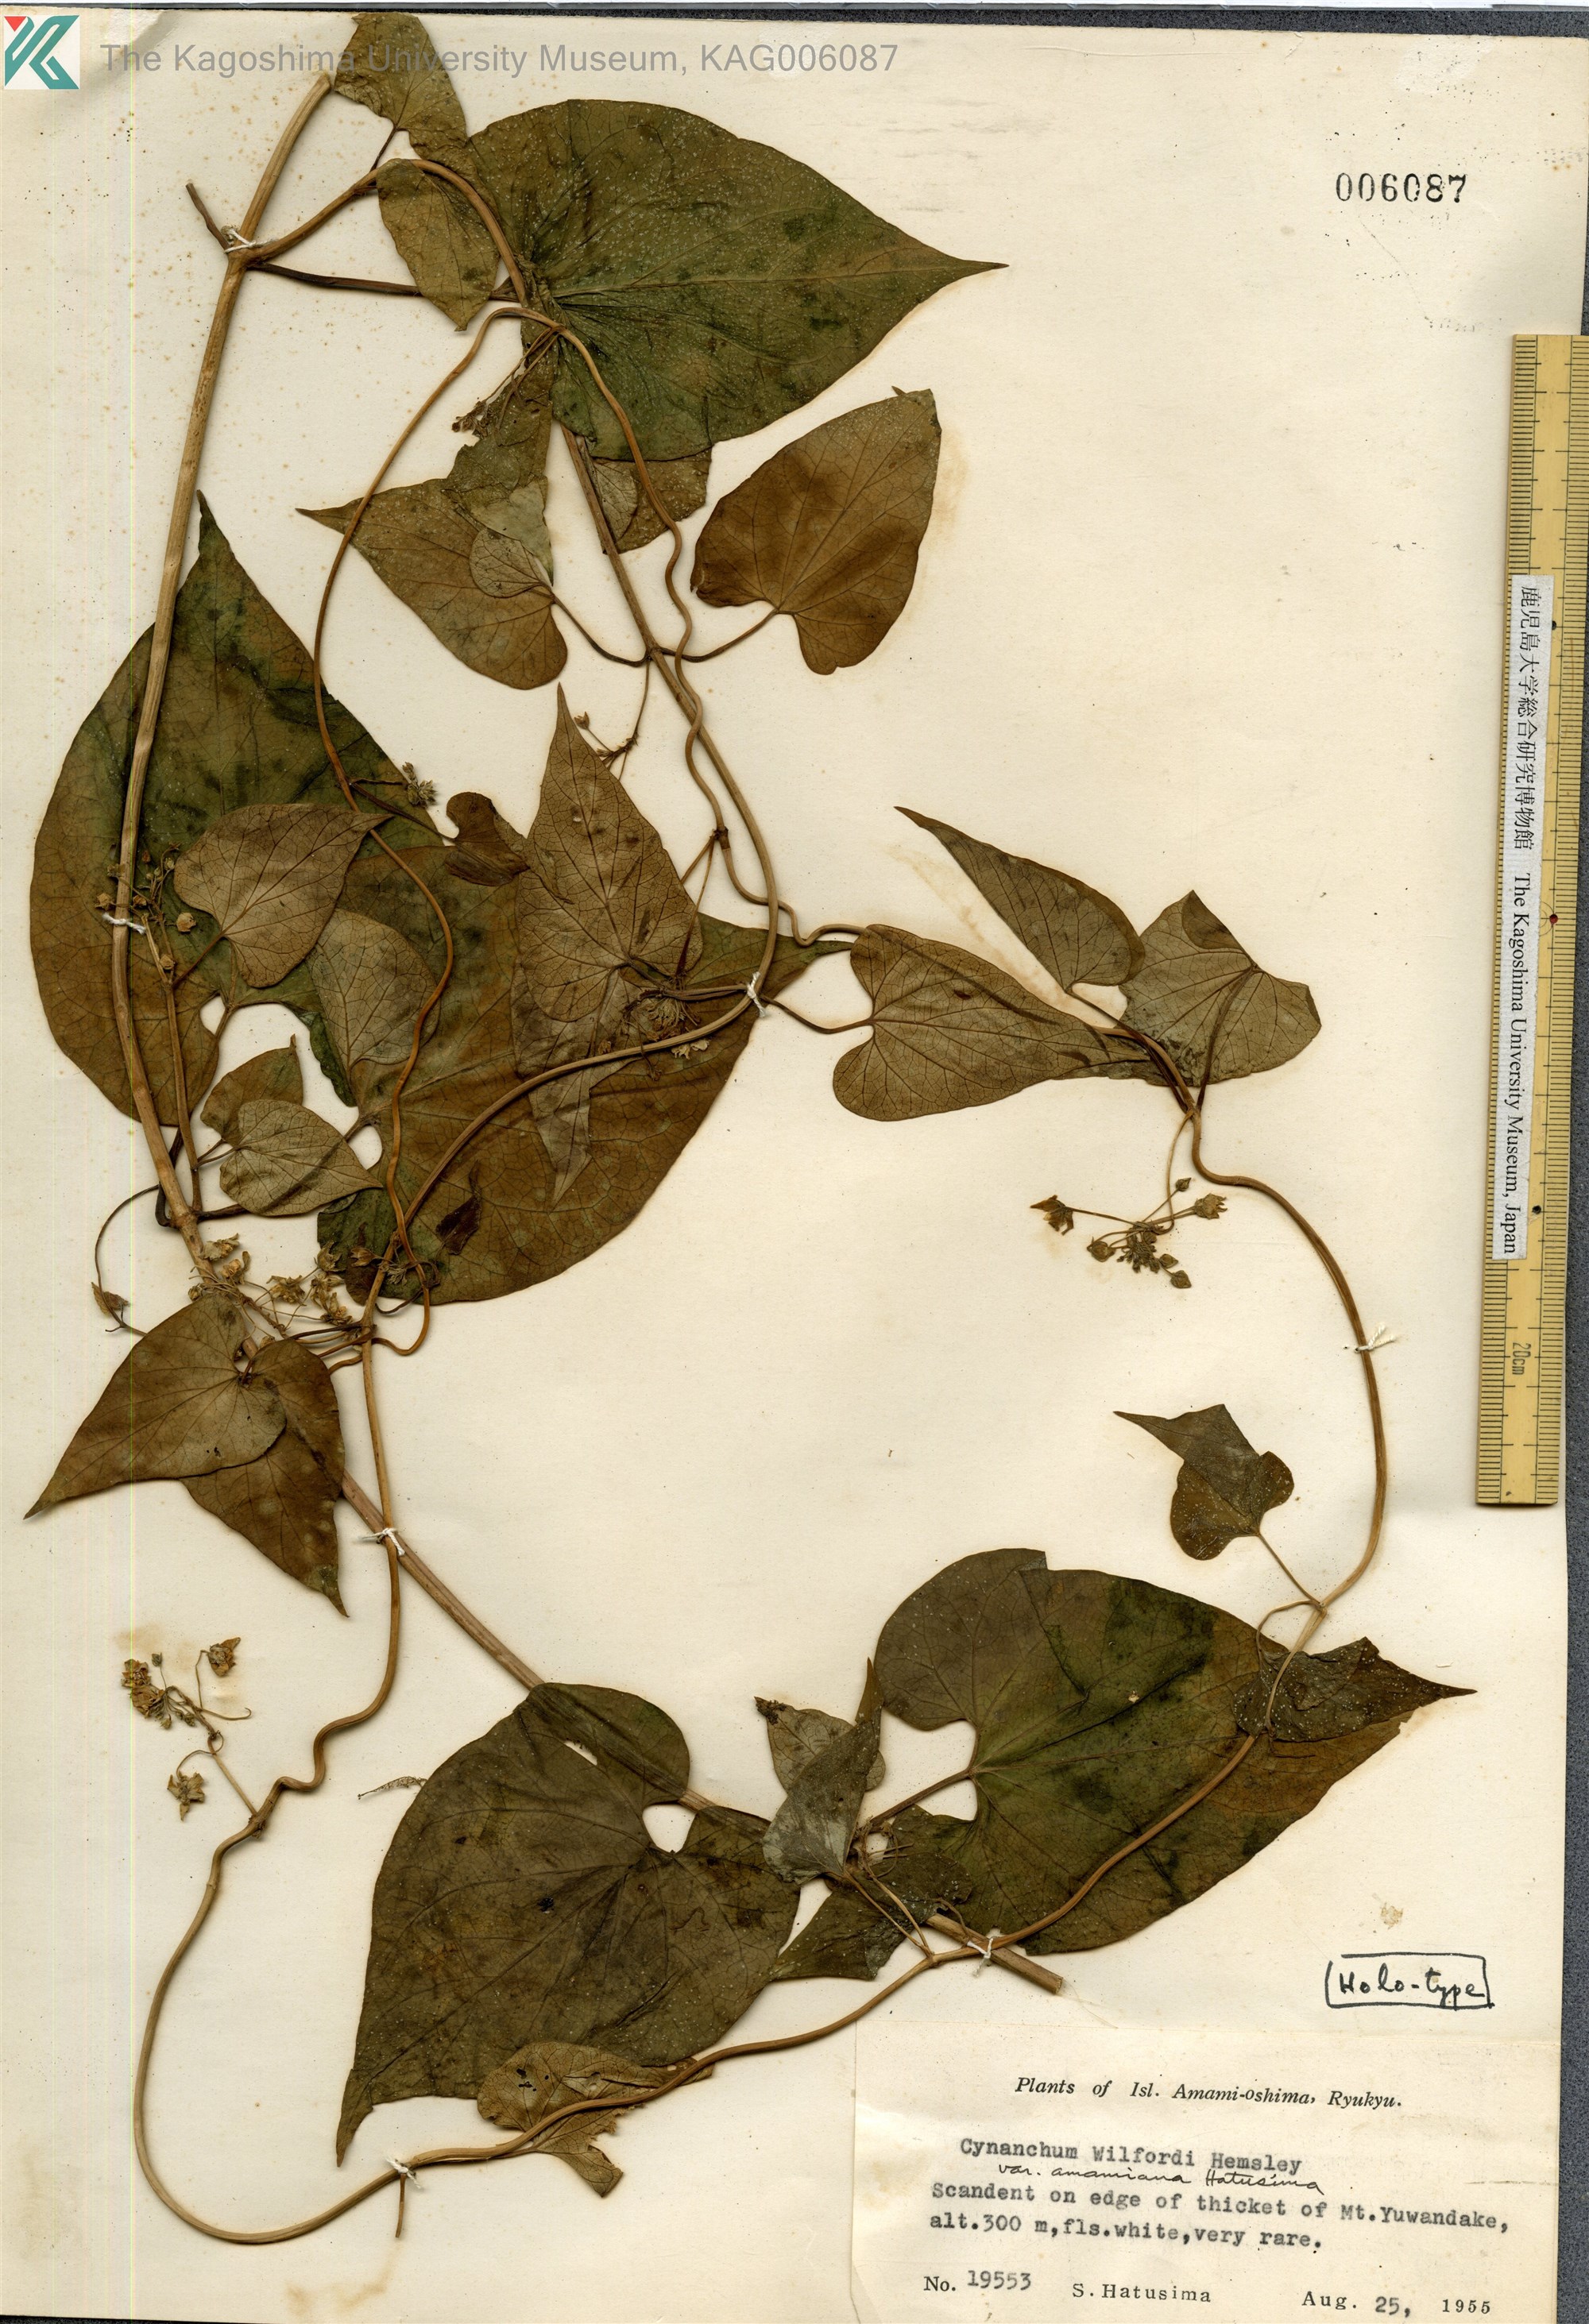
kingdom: Plantae
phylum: Tracheophyta
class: Magnoliopsida
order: Gentianales
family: Apocynaceae
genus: Cynanchum
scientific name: Cynanchum boudieri
